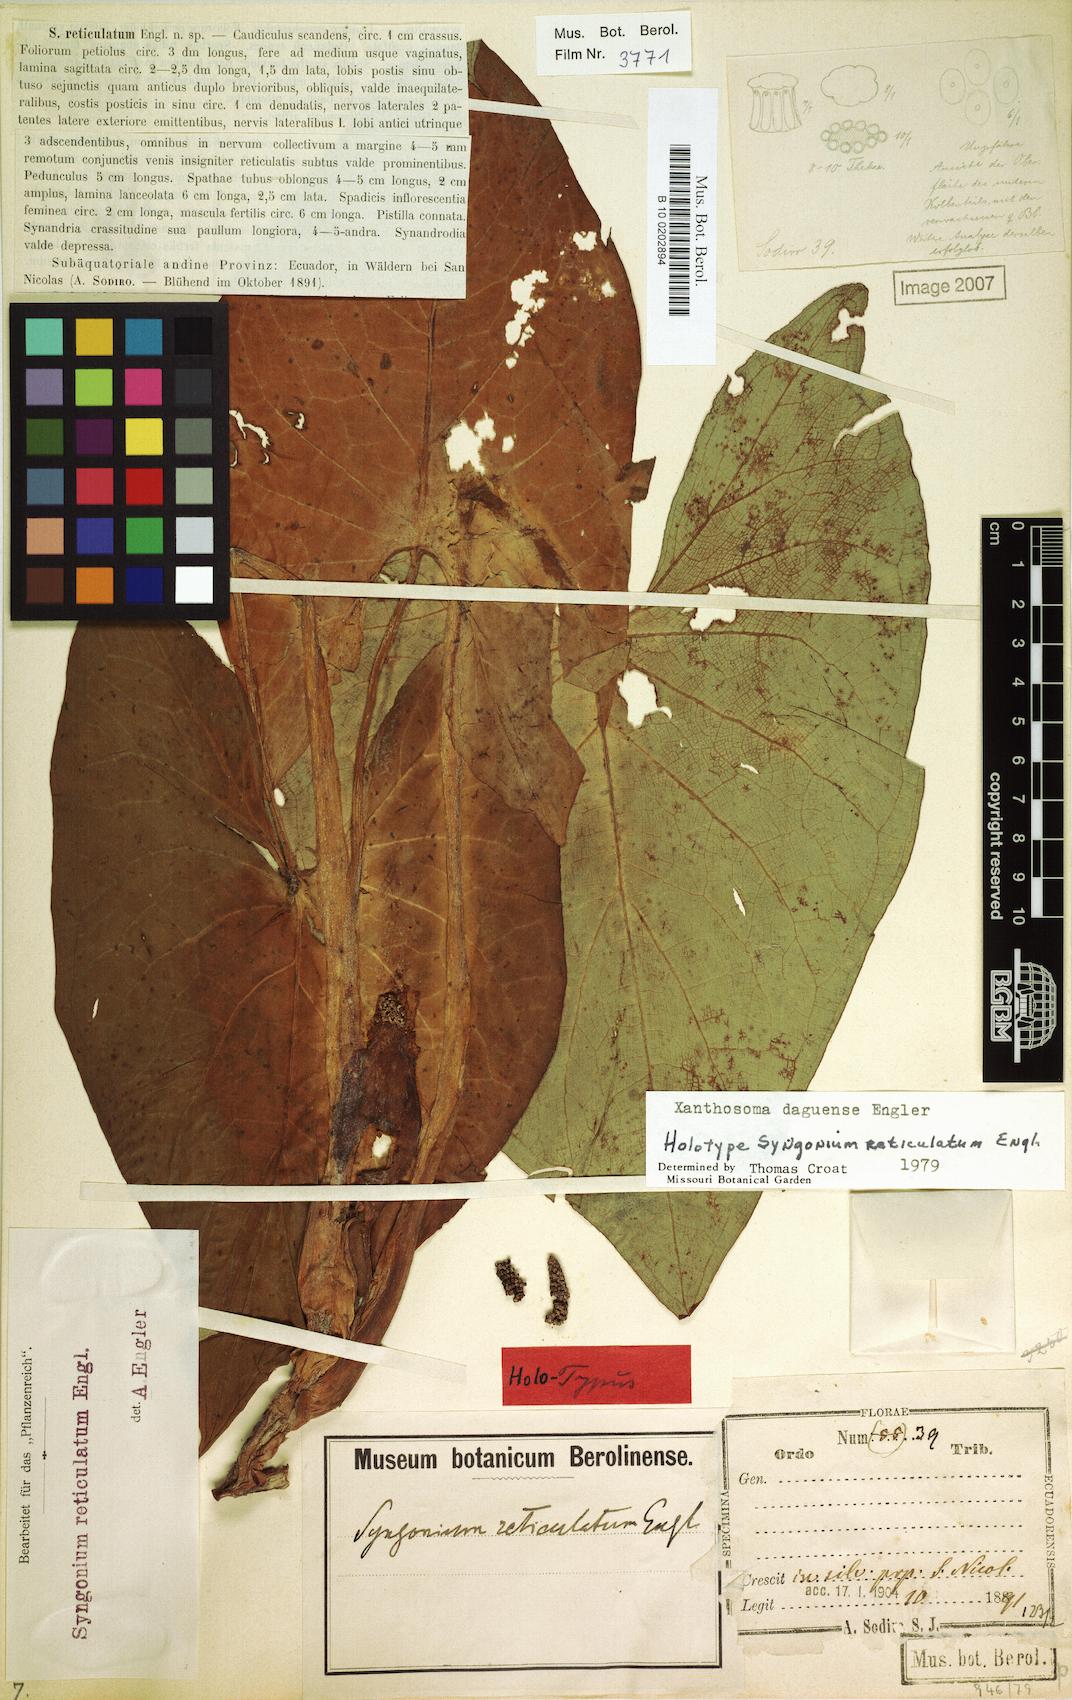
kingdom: Plantae
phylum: Tracheophyta
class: Liliopsida
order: Alismatales
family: Araceae
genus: Xanthosoma
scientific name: Xanthosoma reticulatum
